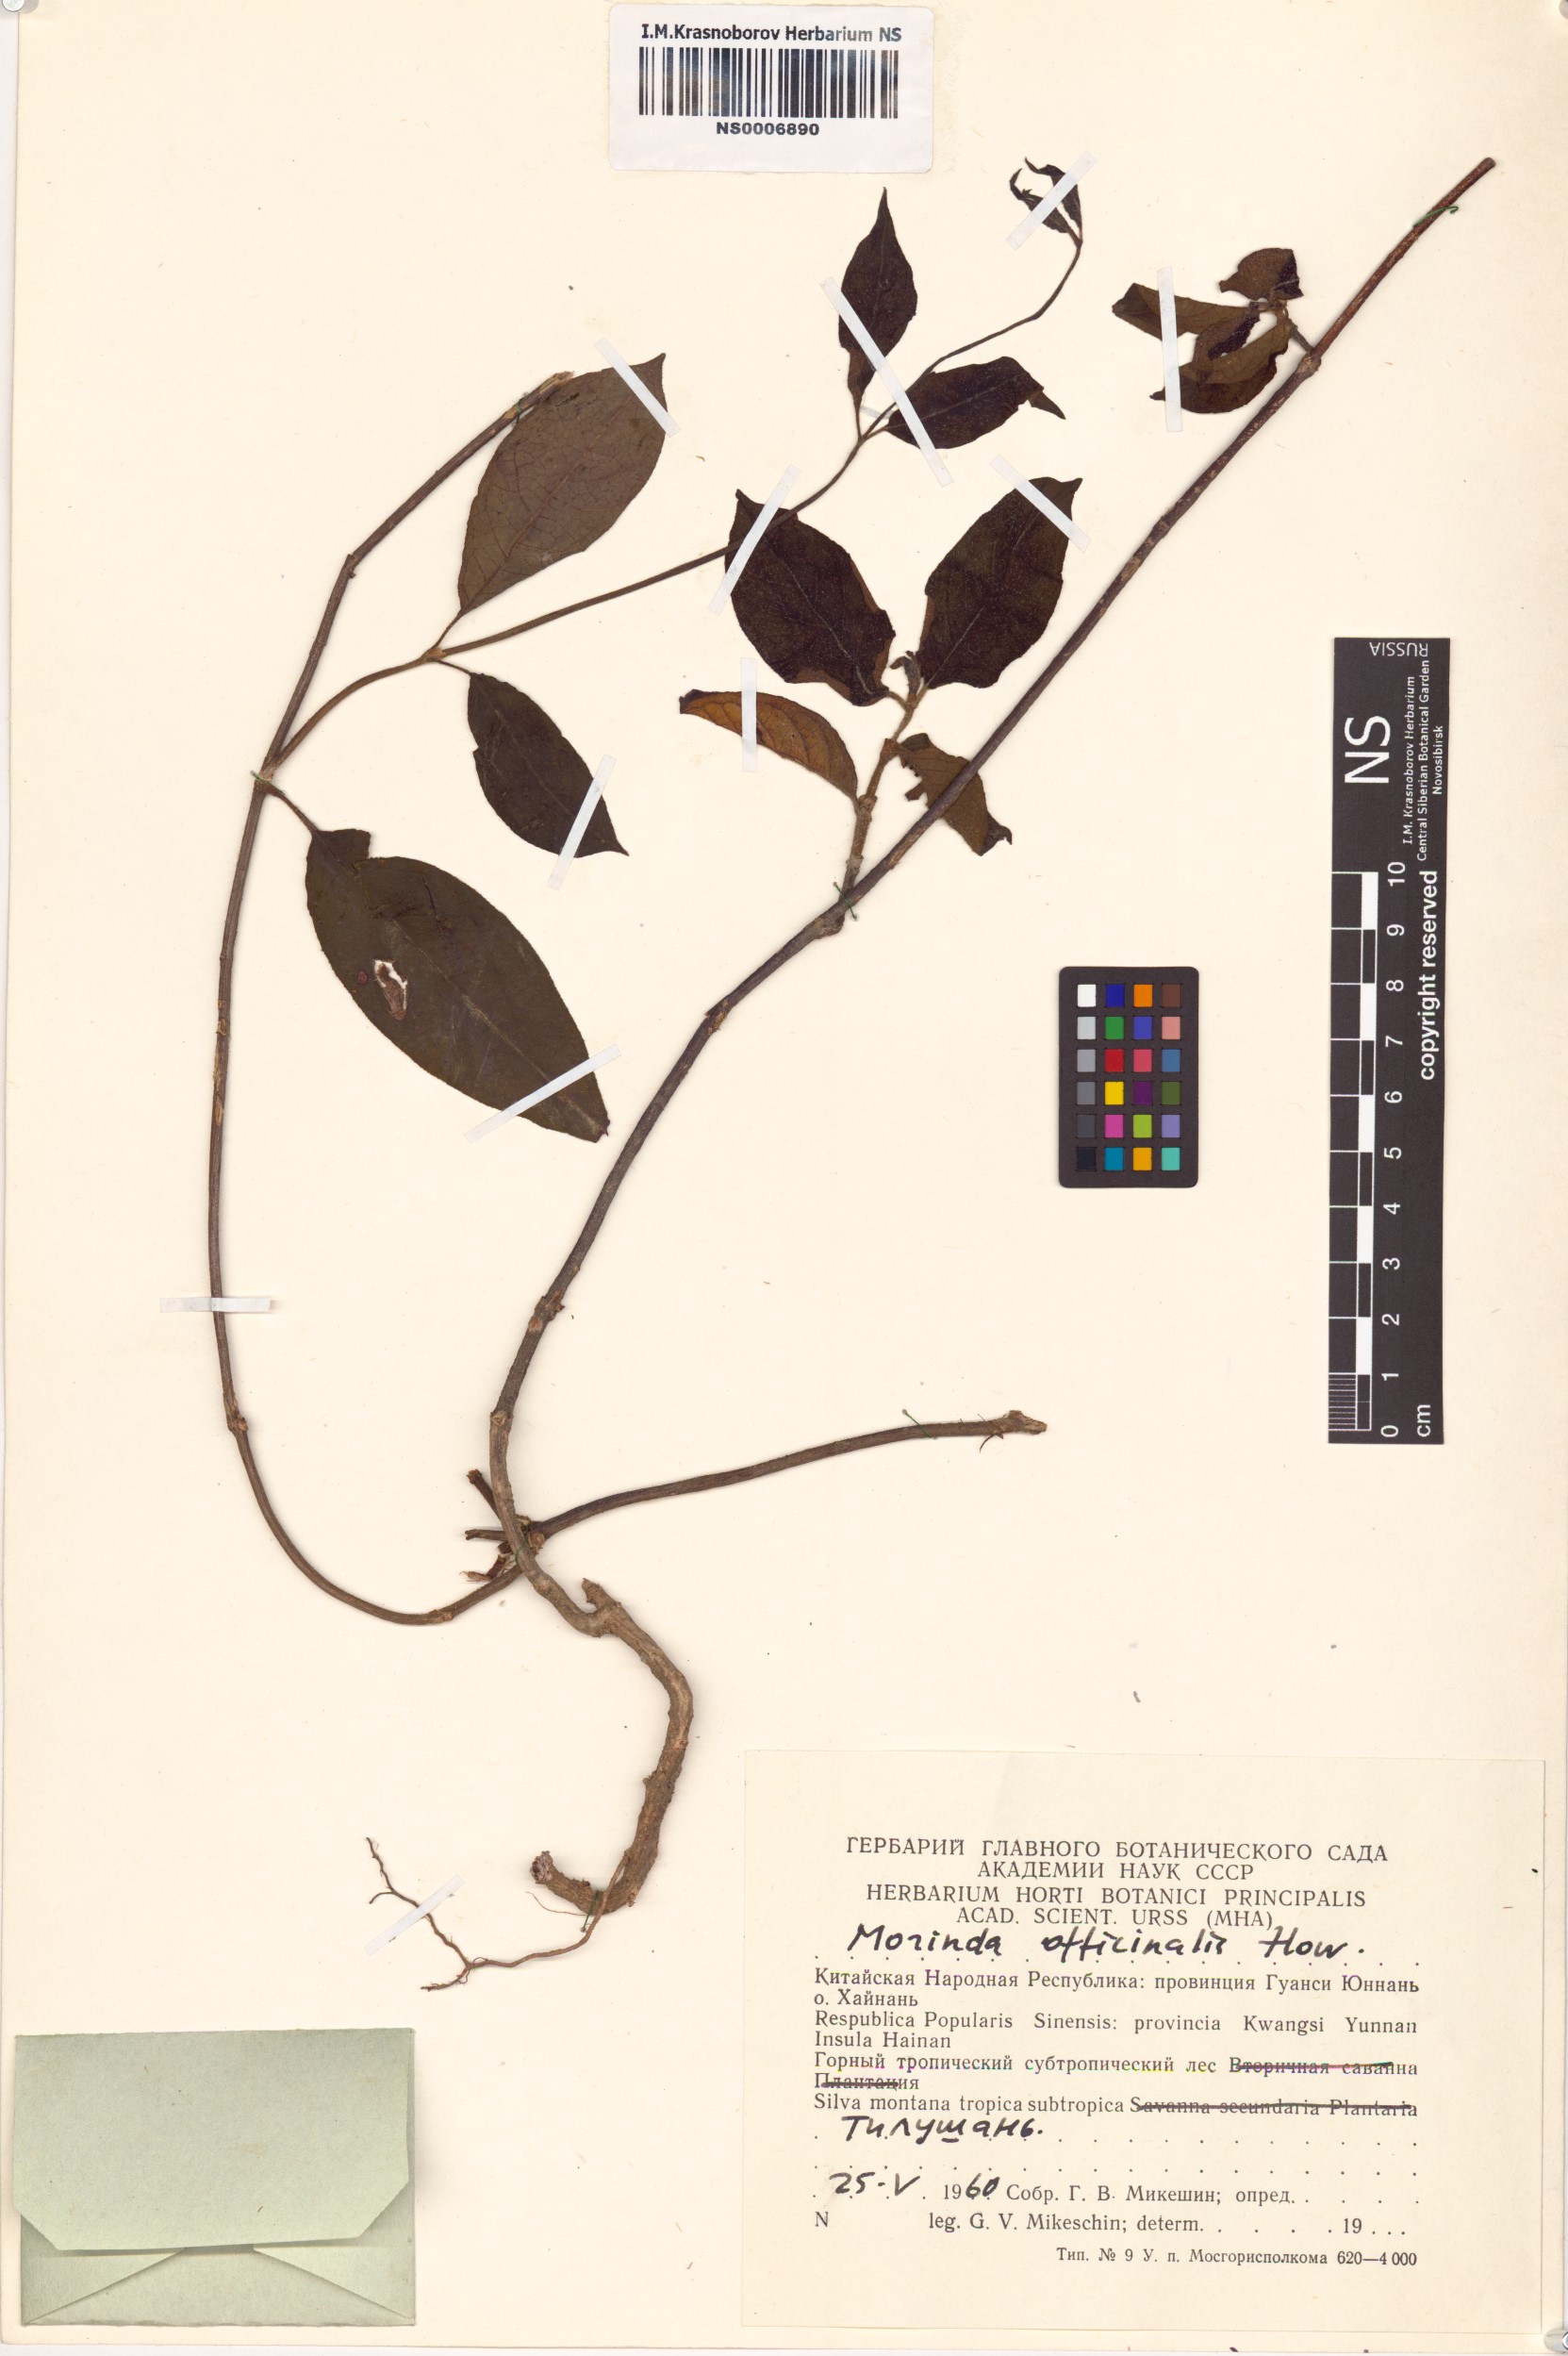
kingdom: Plantae
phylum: Tracheophyta
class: Magnoliopsida
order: Gentianales
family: Rubiaceae
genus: Gynochthodes
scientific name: Gynochthodes officinalis
